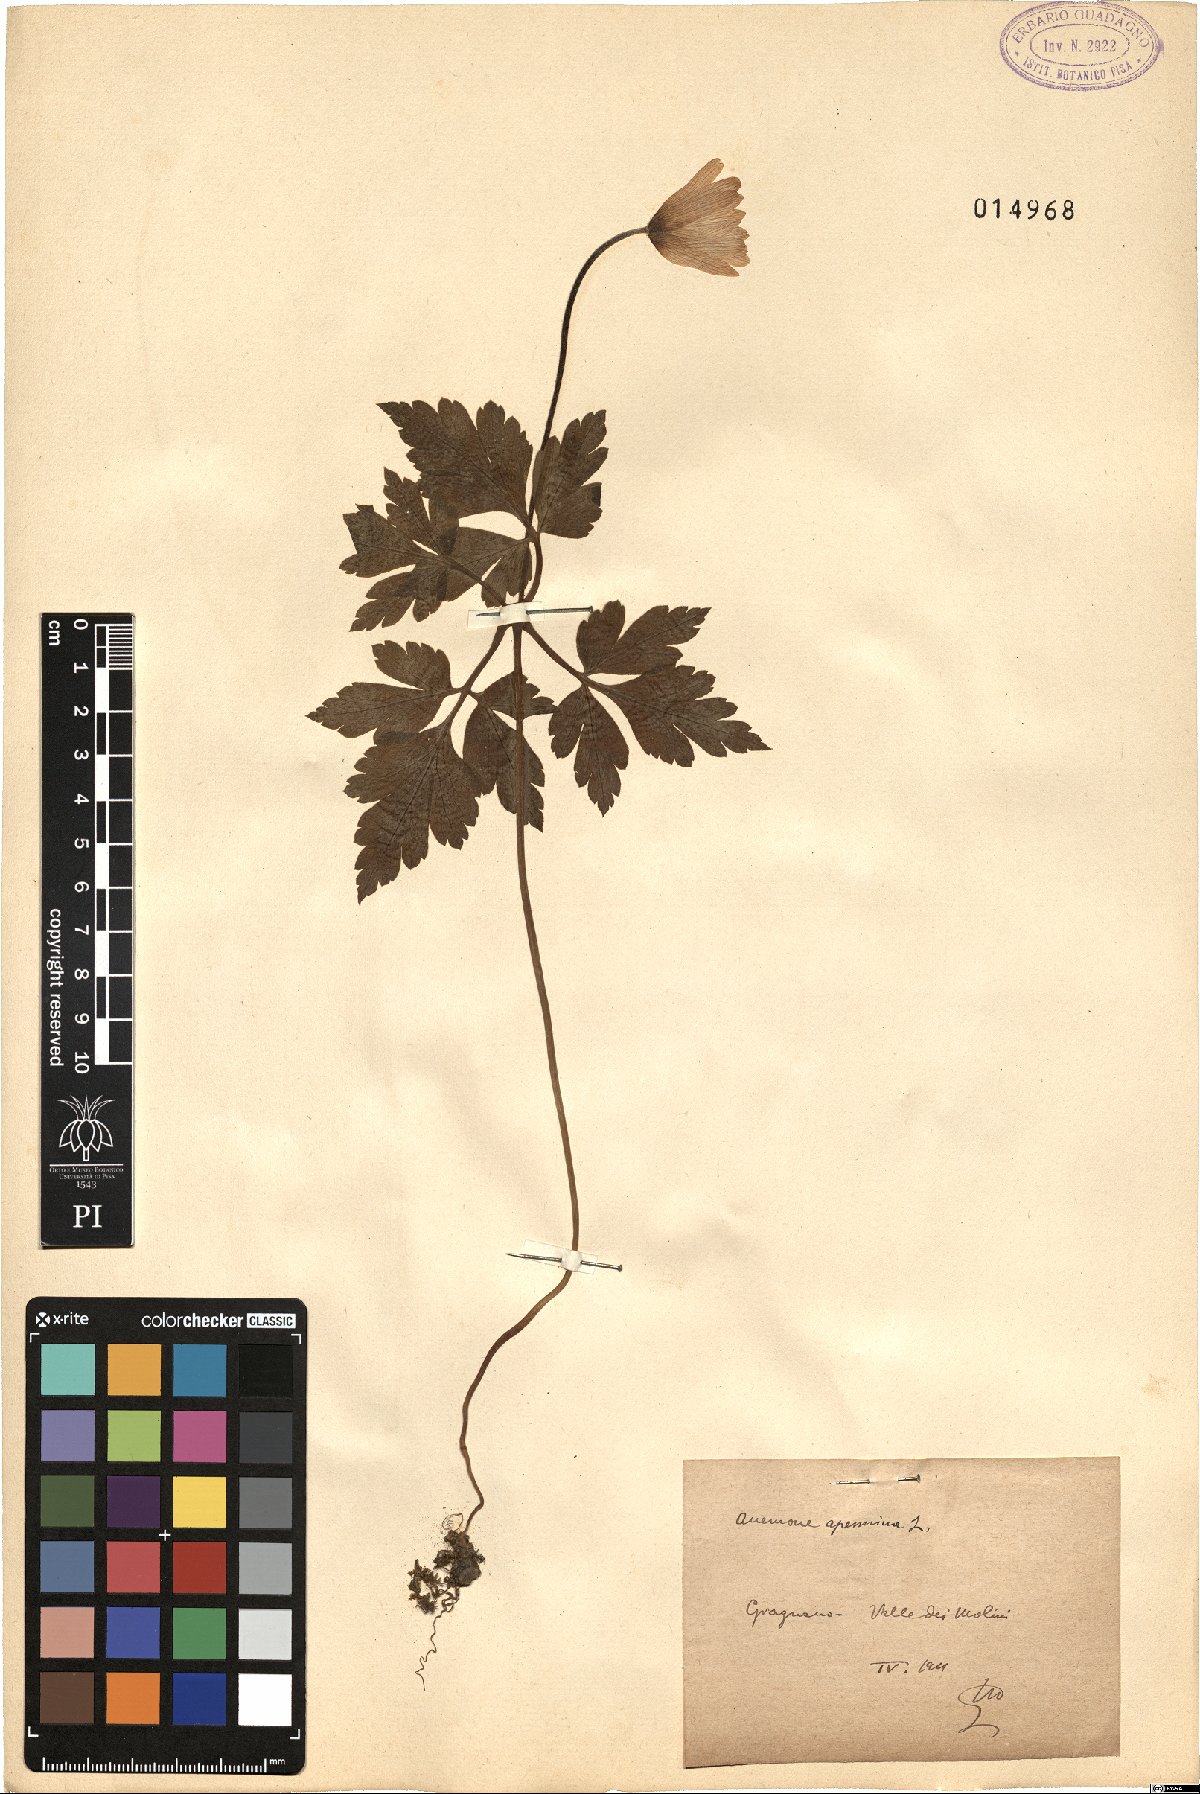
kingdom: Plantae
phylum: Tracheophyta
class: Magnoliopsida
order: Ranunculales
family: Ranunculaceae
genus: Anemone
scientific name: Anemone apennina
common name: Blue anemone
